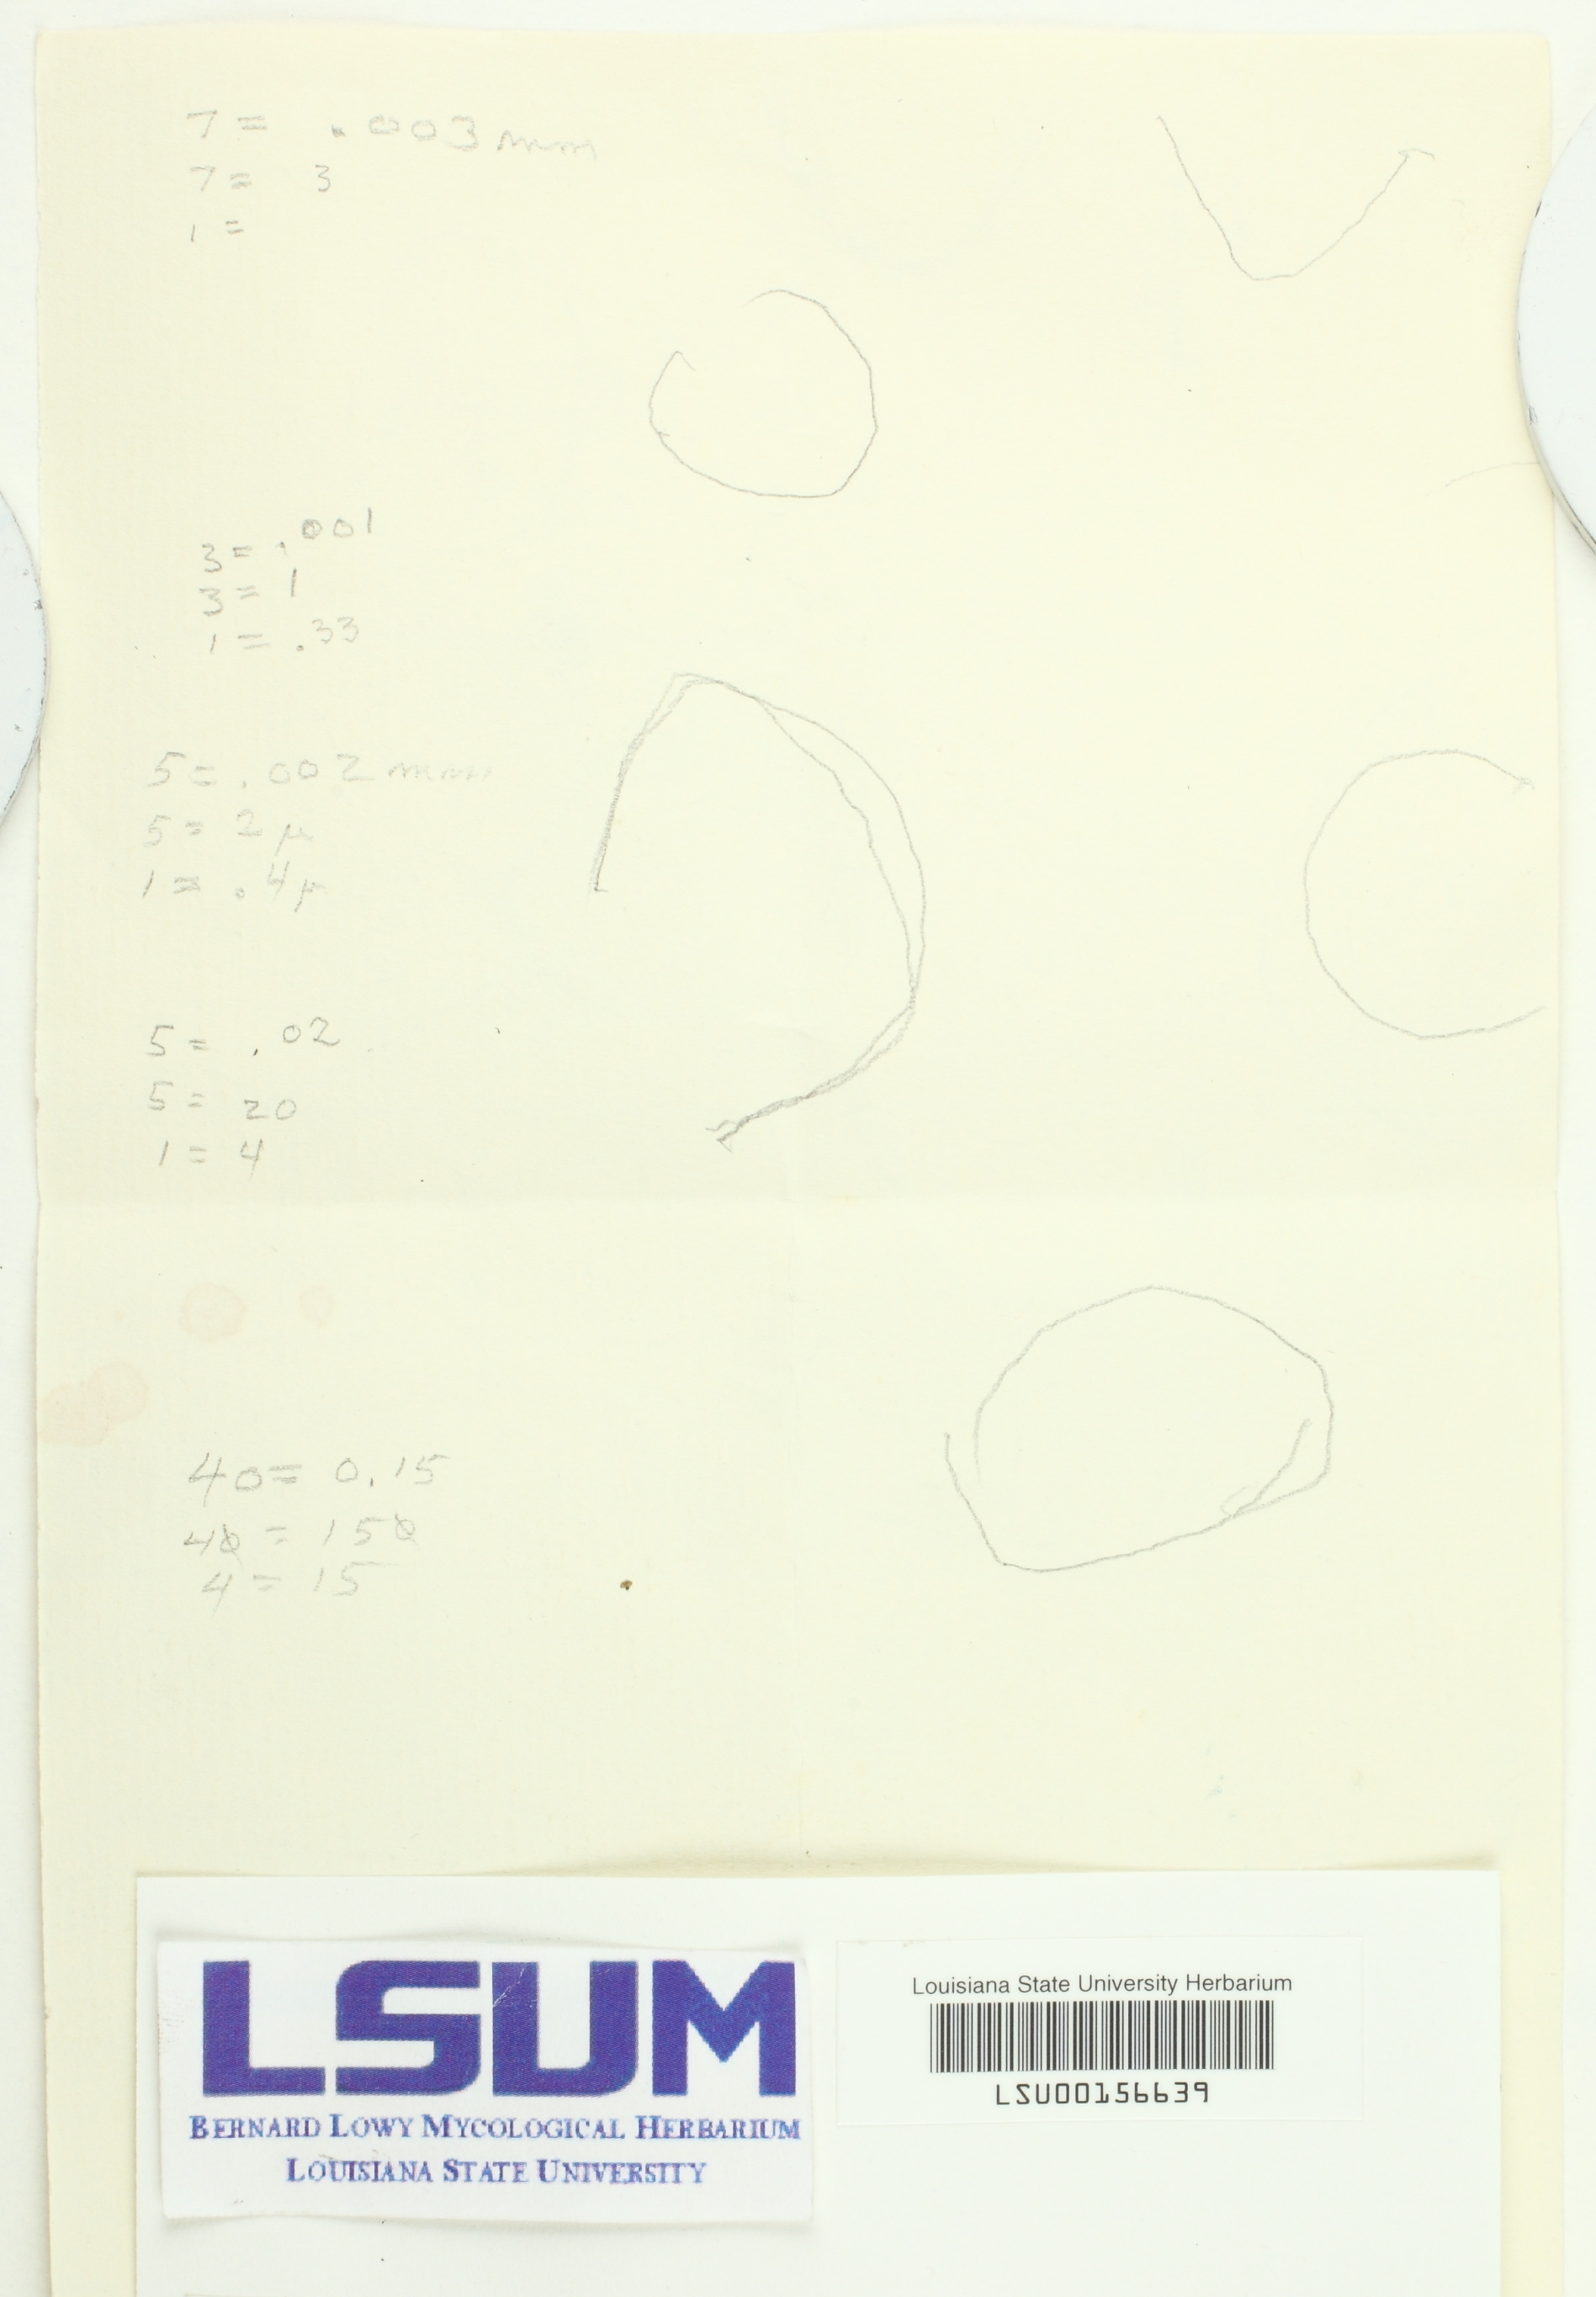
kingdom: Fungi
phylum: Basidiomycota
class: Agaricomycetes
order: Polyporales
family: Polyporaceae
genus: Microporus
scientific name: Microporus affinis
